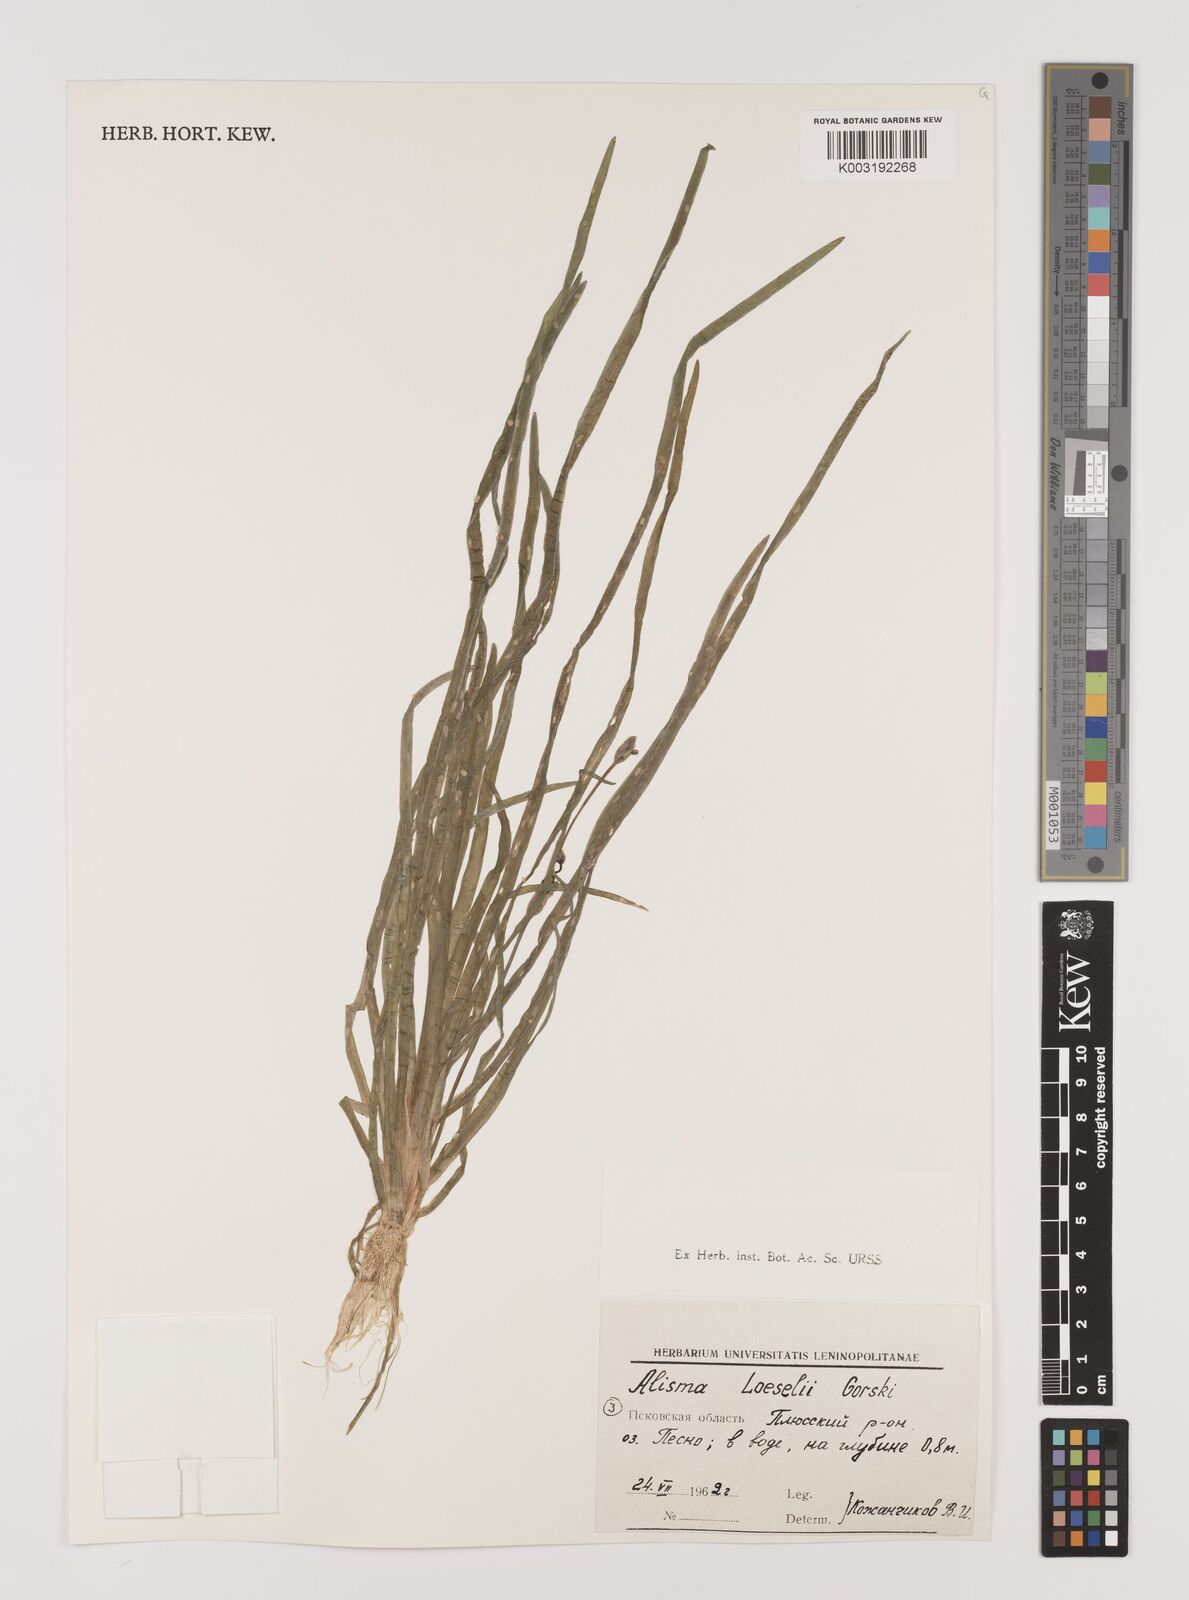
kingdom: Plantae
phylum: Tracheophyta
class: Liliopsida
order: Alismatales
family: Alismataceae
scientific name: Alismataceae
